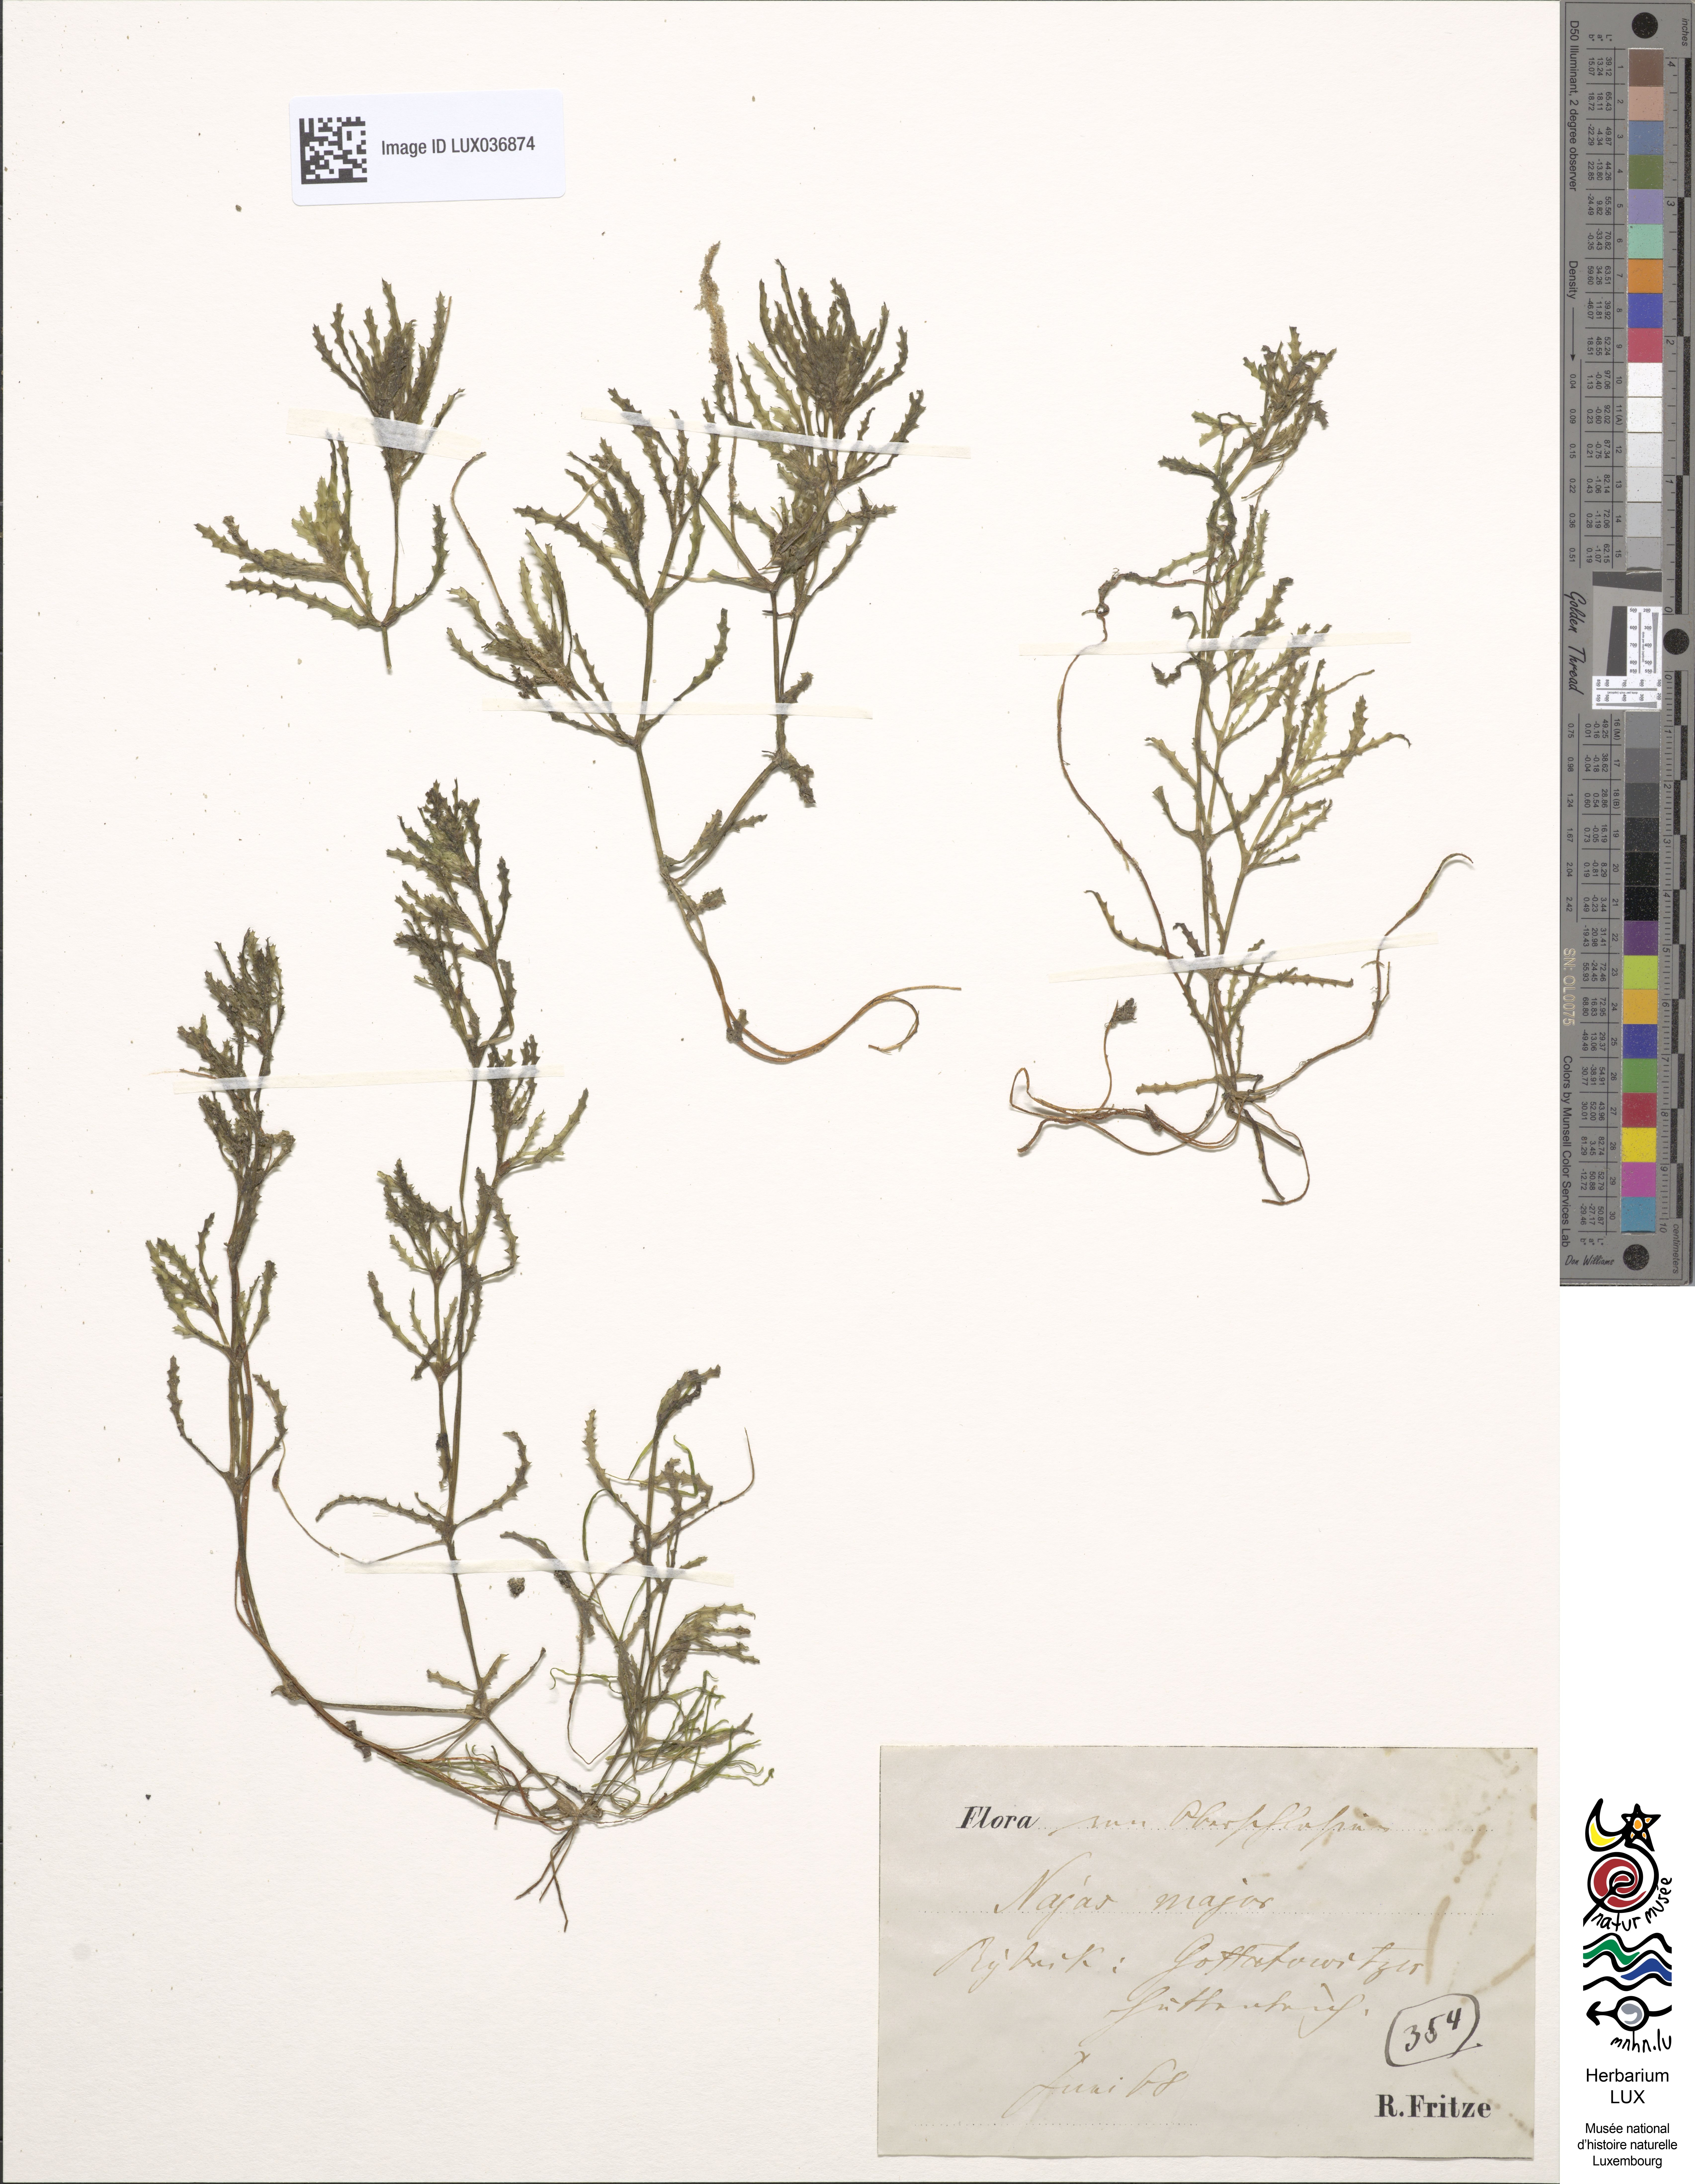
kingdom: Plantae
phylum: Tracheophyta
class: Liliopsida
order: Alismatales
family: Hydrocharitaceae
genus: Najas
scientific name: Najas marina
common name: Holly-leaved naiad
